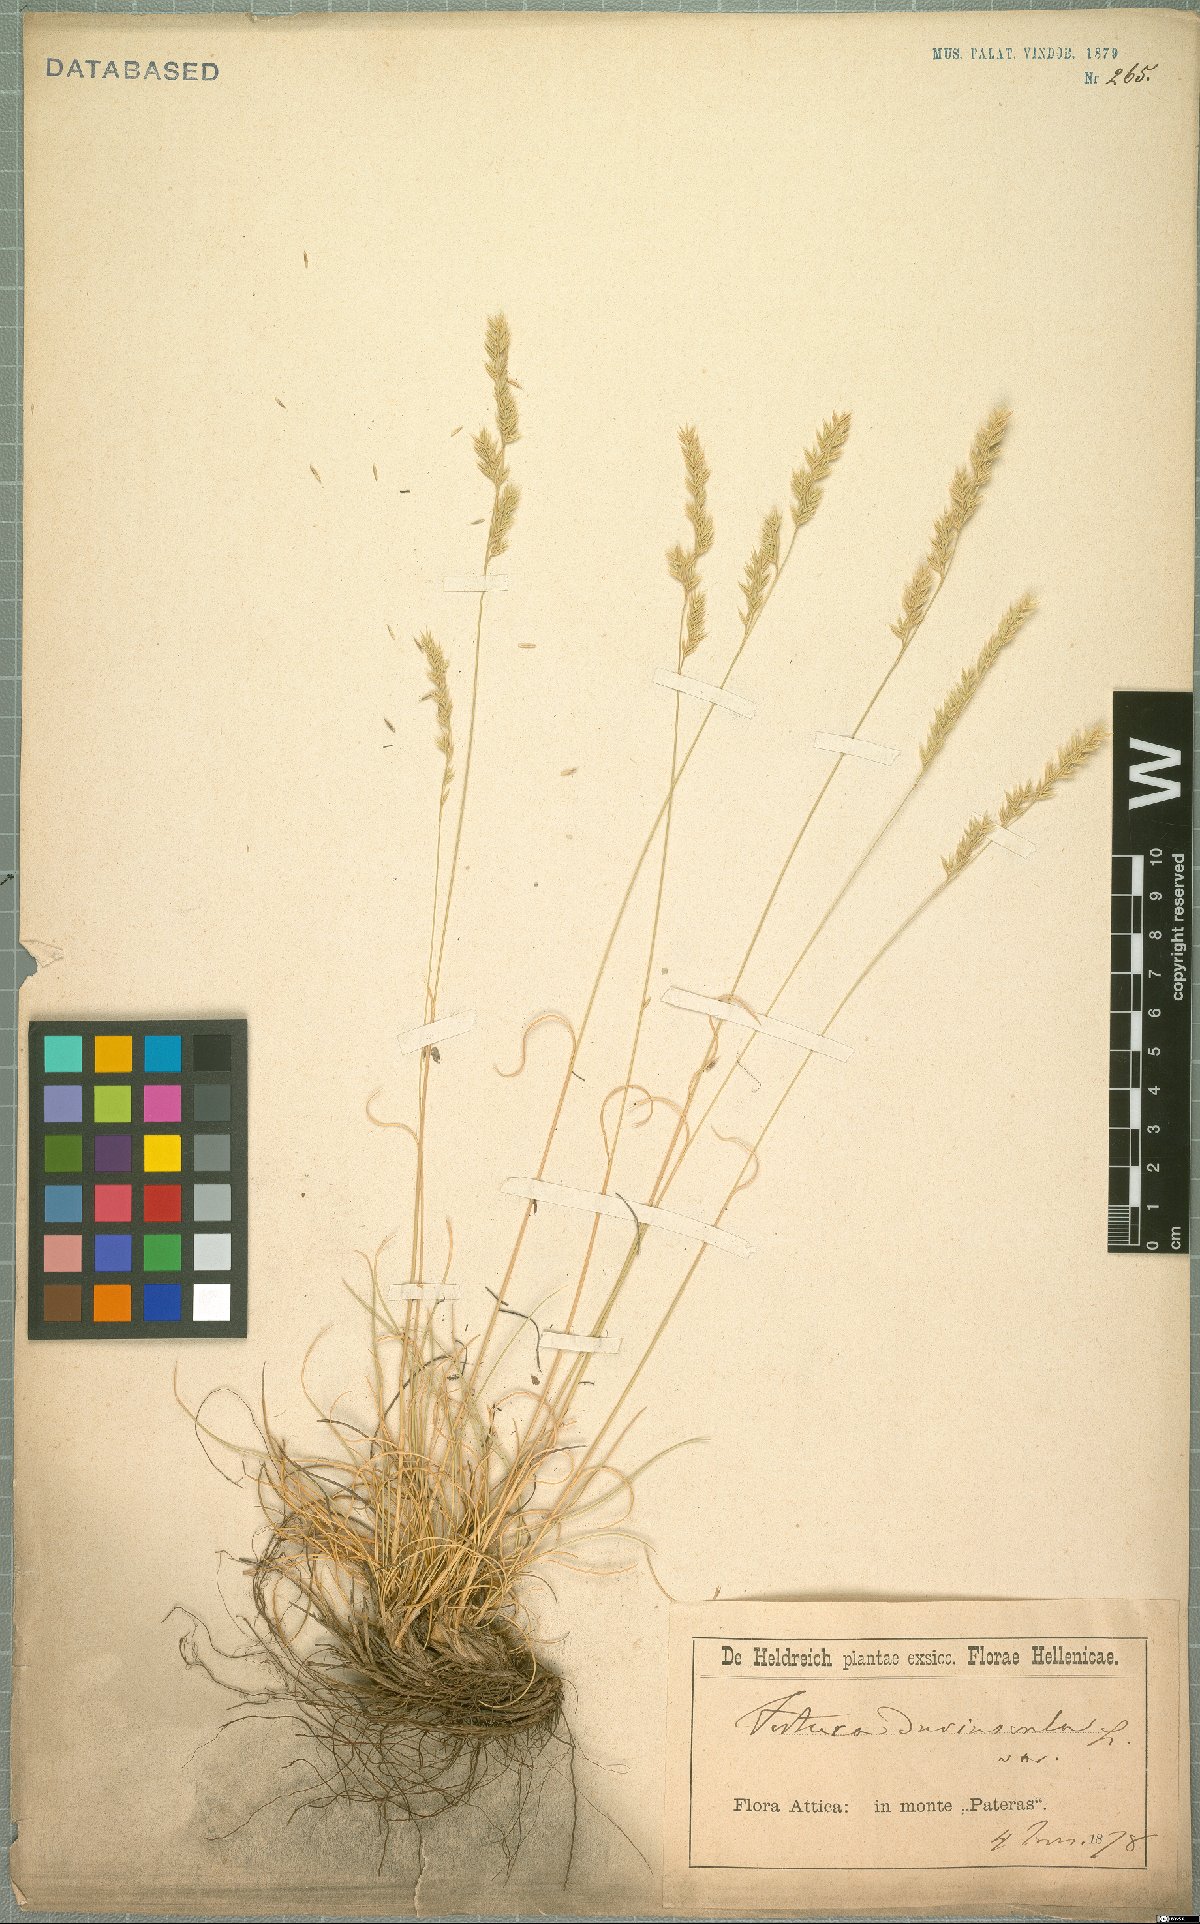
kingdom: Plantae
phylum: Tracheophyta
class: Liliopsida
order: Poales
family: Poaceae
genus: Festuca
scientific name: Festuca rubra
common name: Red fescue
